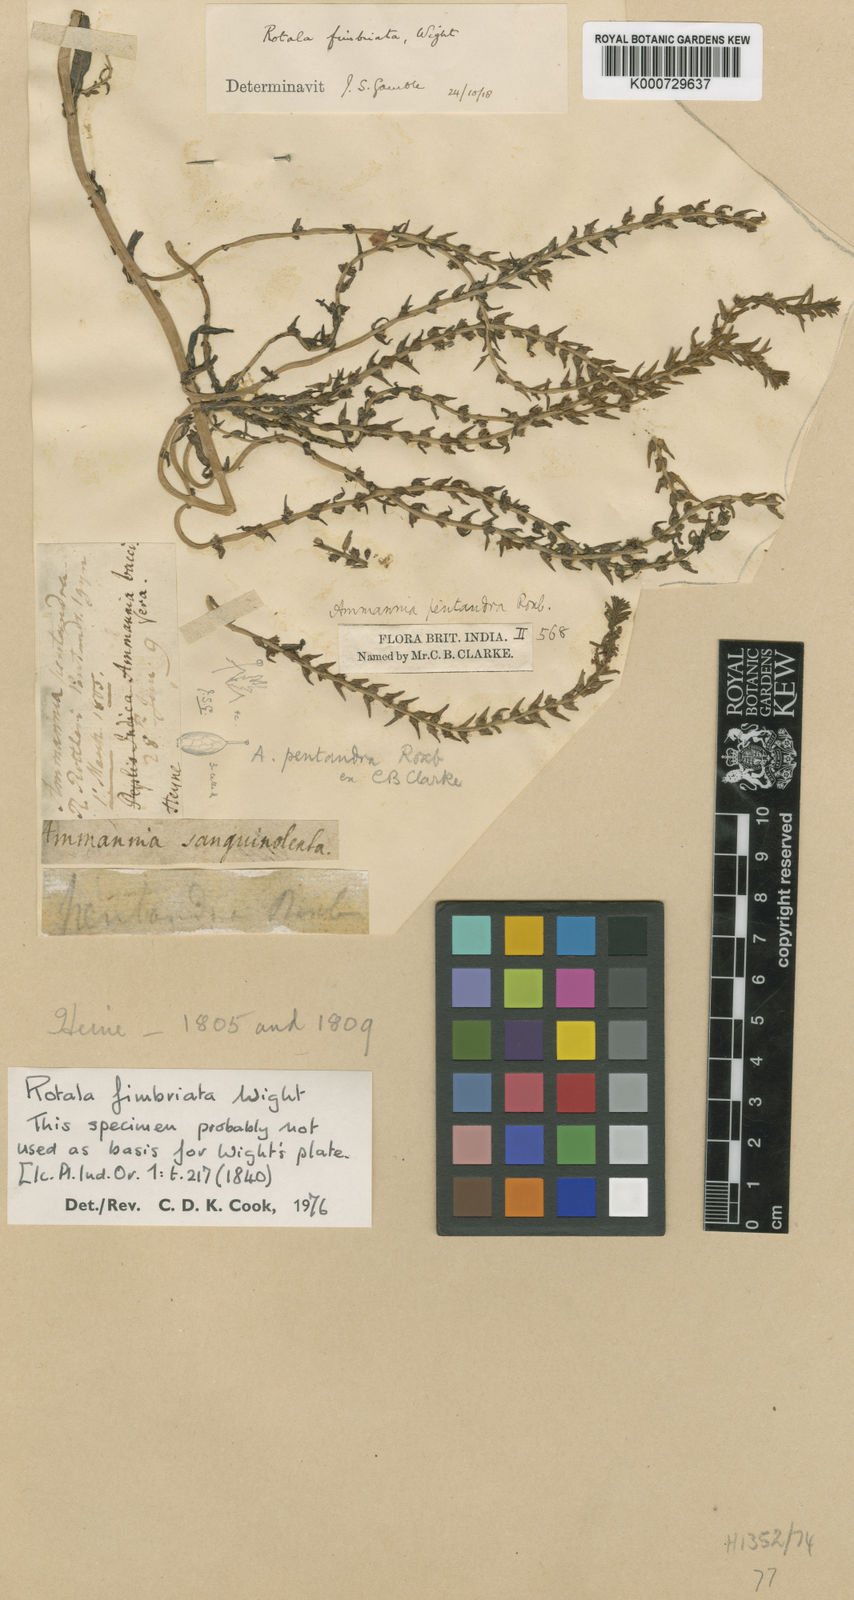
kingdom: Plantae
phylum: Tracheophyta
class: Magnoliopsida
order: Myrtales
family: Lythraceae
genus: Rotala
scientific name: Rotala fimbriata
